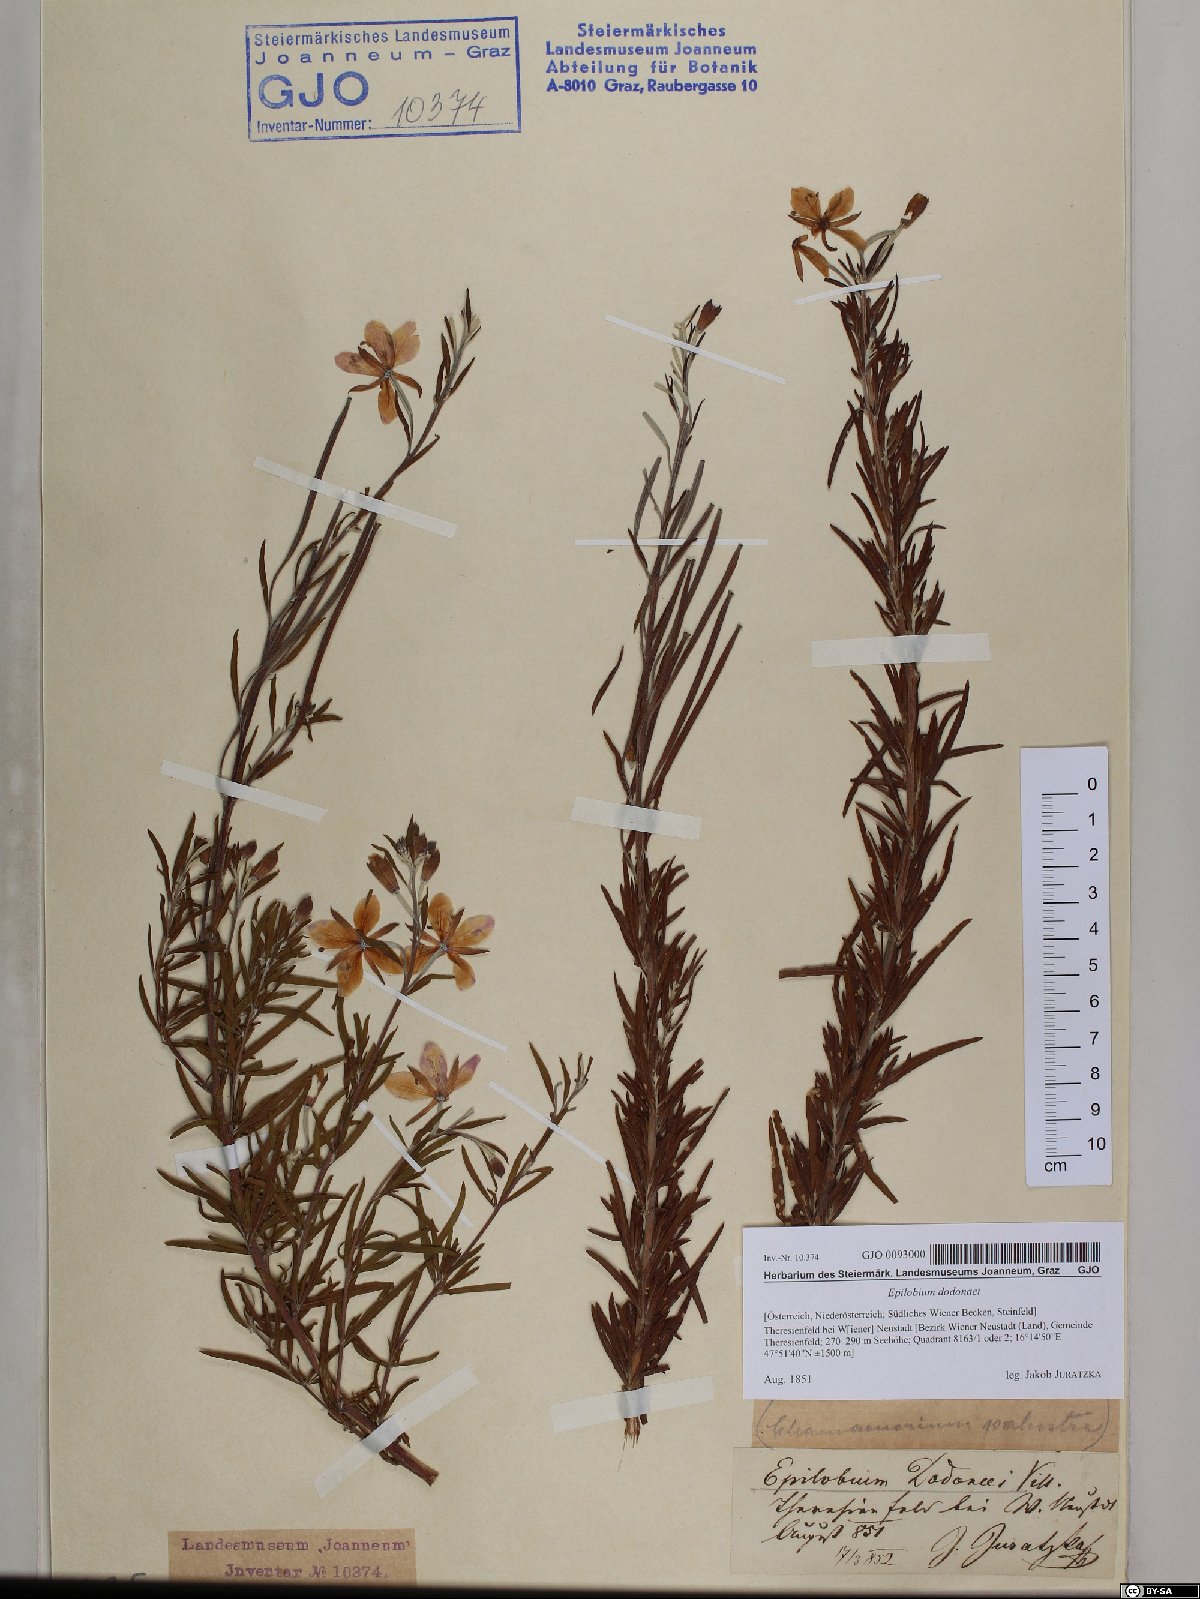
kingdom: Plantae
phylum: Tracheophyta
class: Magnoliopsida
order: Myrtales
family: Onagraceae
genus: Chamaenerion
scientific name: Chamaenerion dodonaei
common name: Rosemary-leaved willowherb
